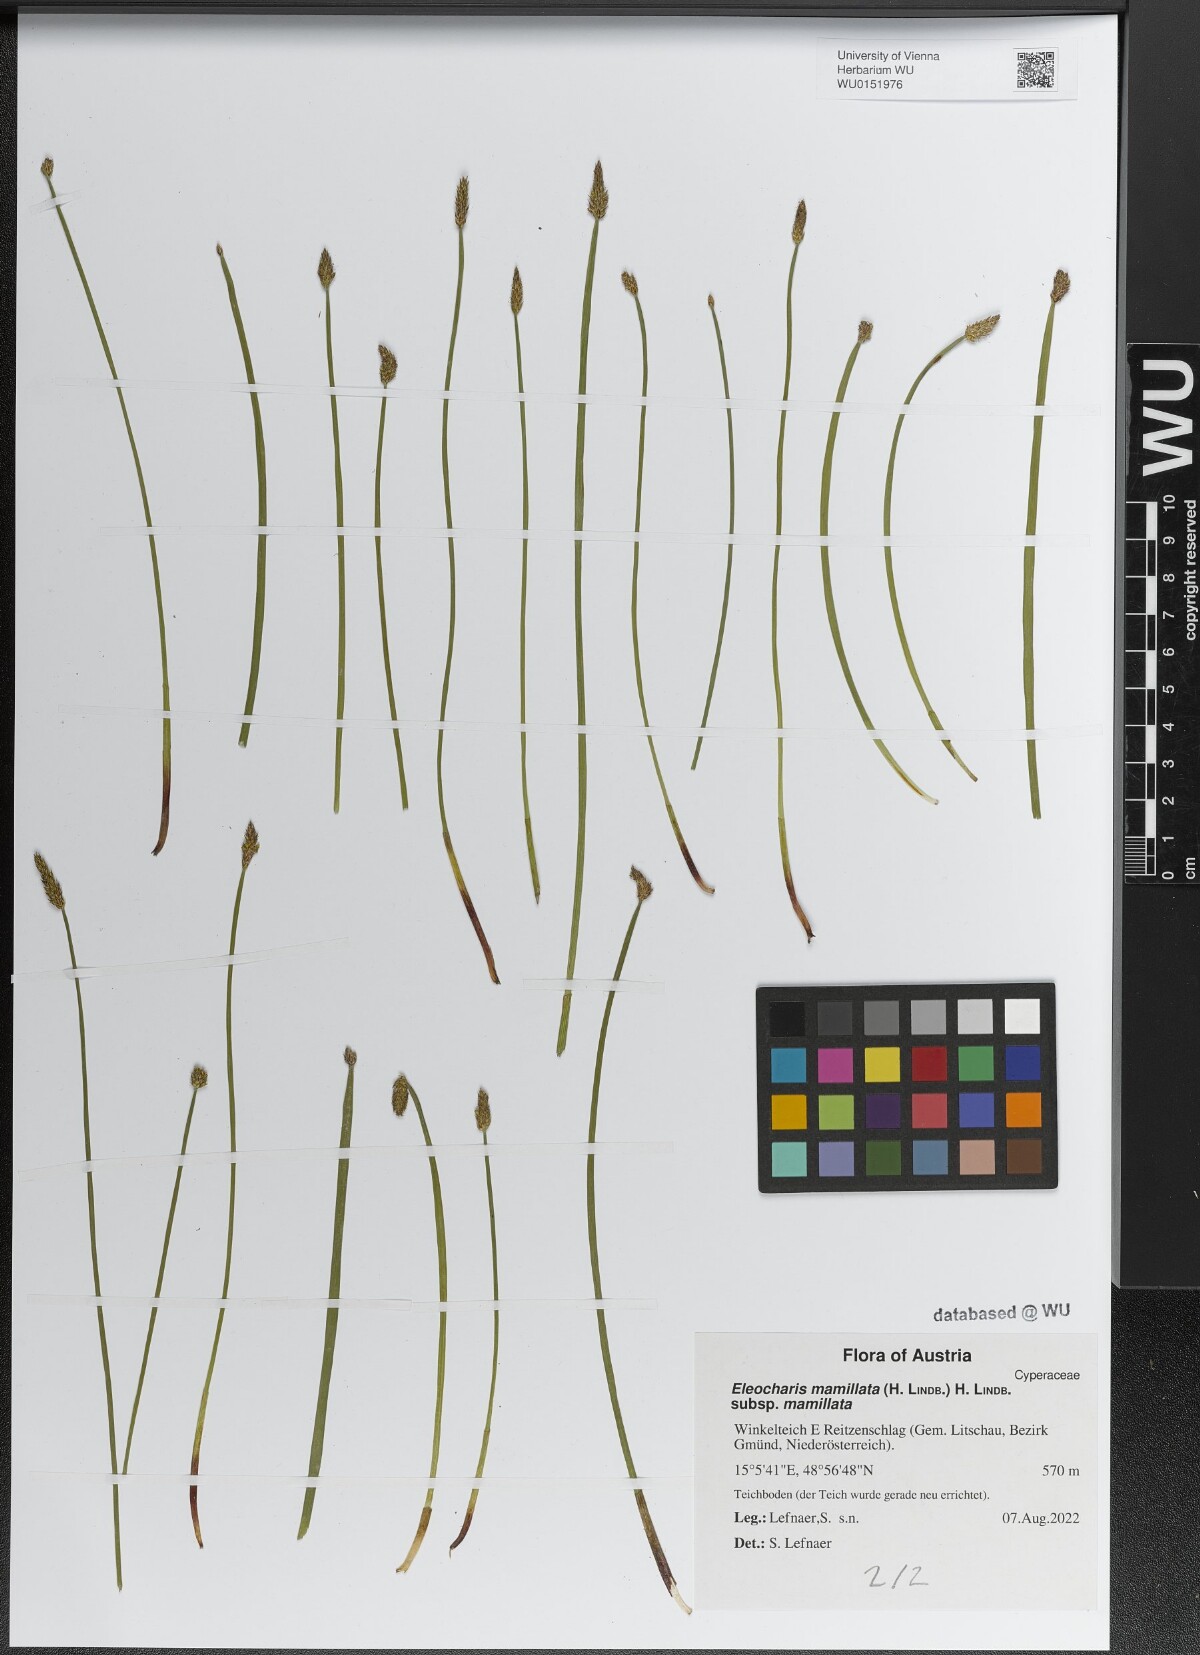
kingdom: Plantae
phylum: Tracheophyta
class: Liliopsida
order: Poales
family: Cyperaceae
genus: Eleocharis
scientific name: Eleocharis mamillata
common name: Northern spike-rush
